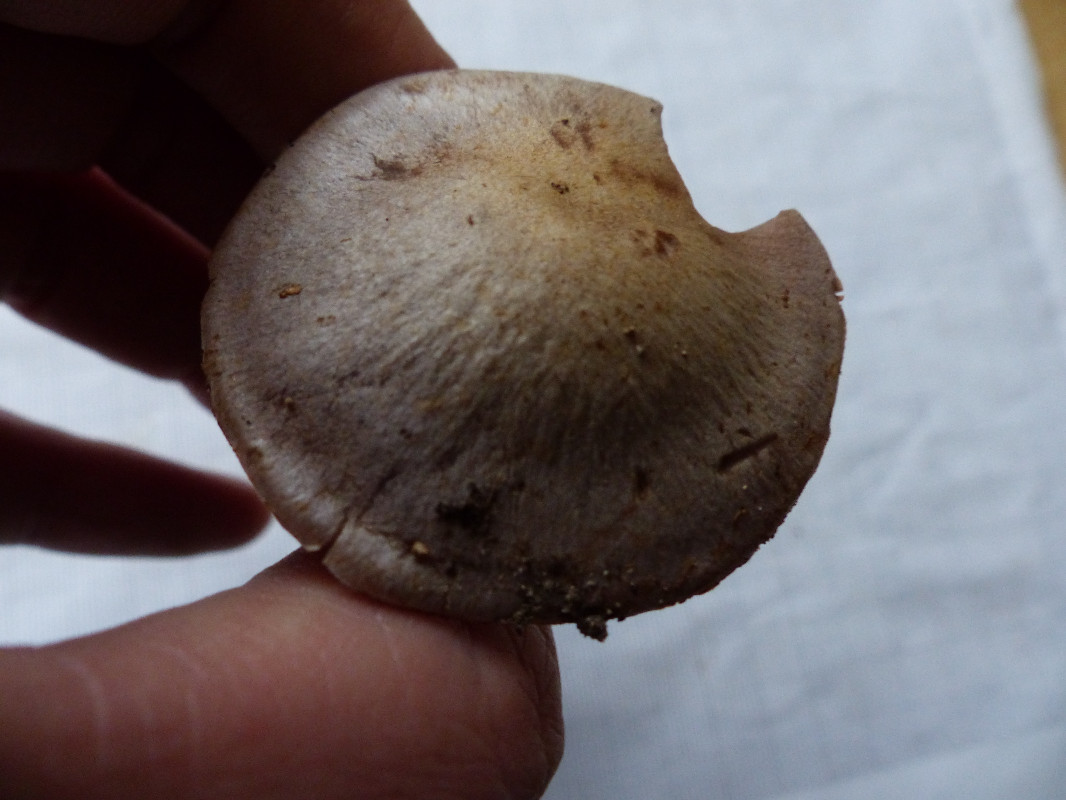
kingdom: Fungi
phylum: Basidiomycota
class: Agaricomycetes
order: Agaricales
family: Cortinariaceae
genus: Cortinarius
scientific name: Cortinarius
